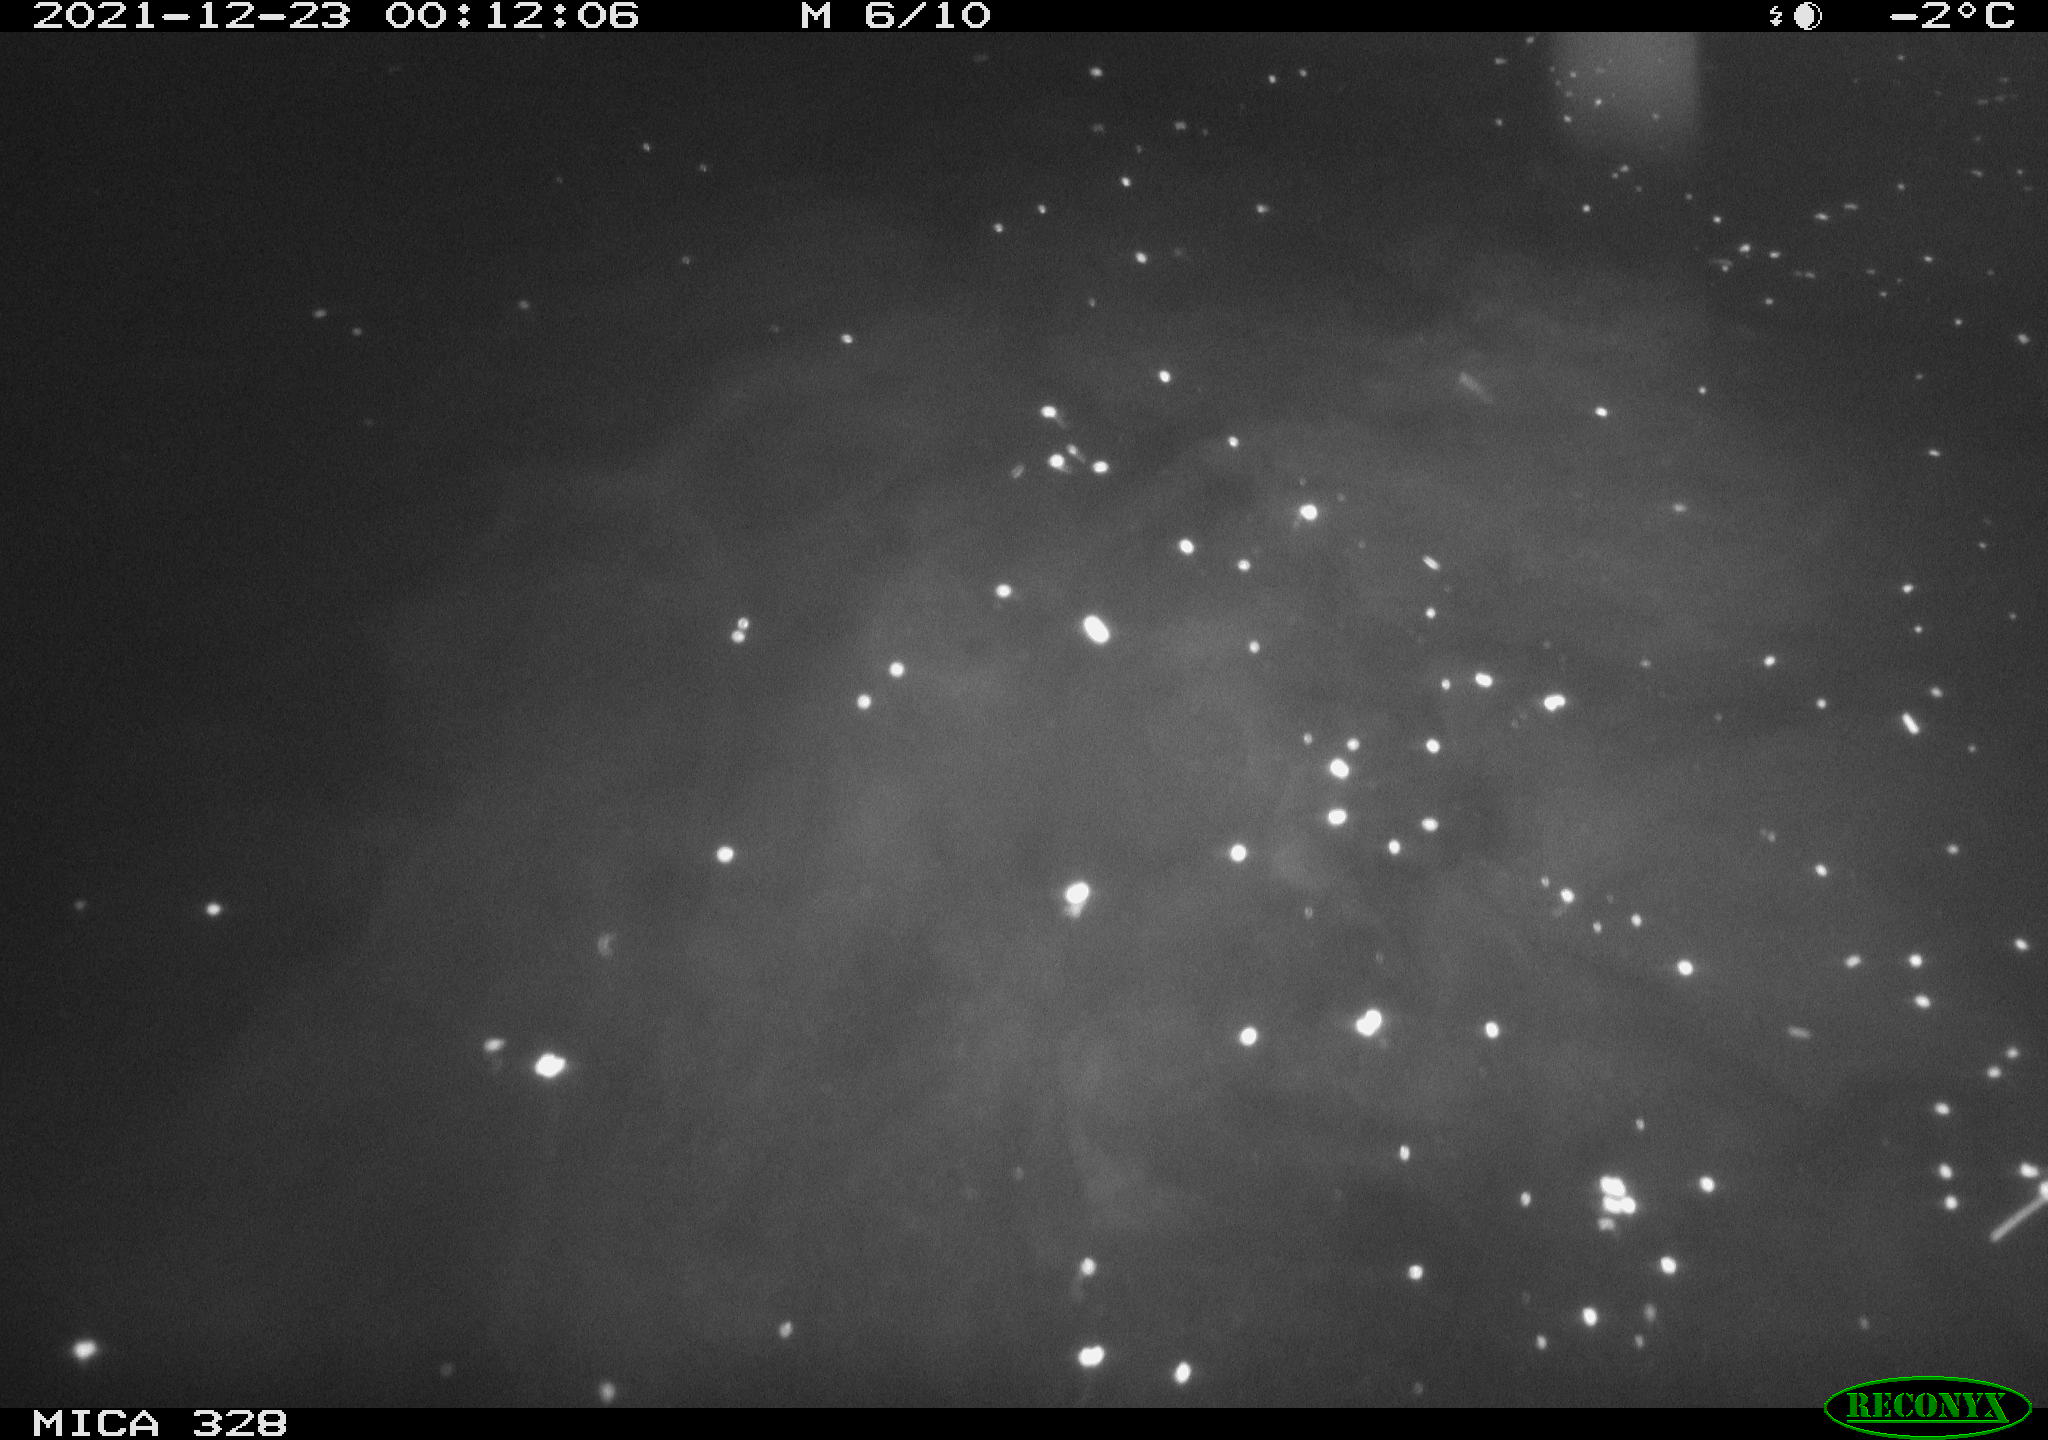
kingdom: Animalia
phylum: Chordata
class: Aves
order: Anseriformes
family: Anatidae
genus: Anas
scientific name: Anas platyrhynchos
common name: Mallard
